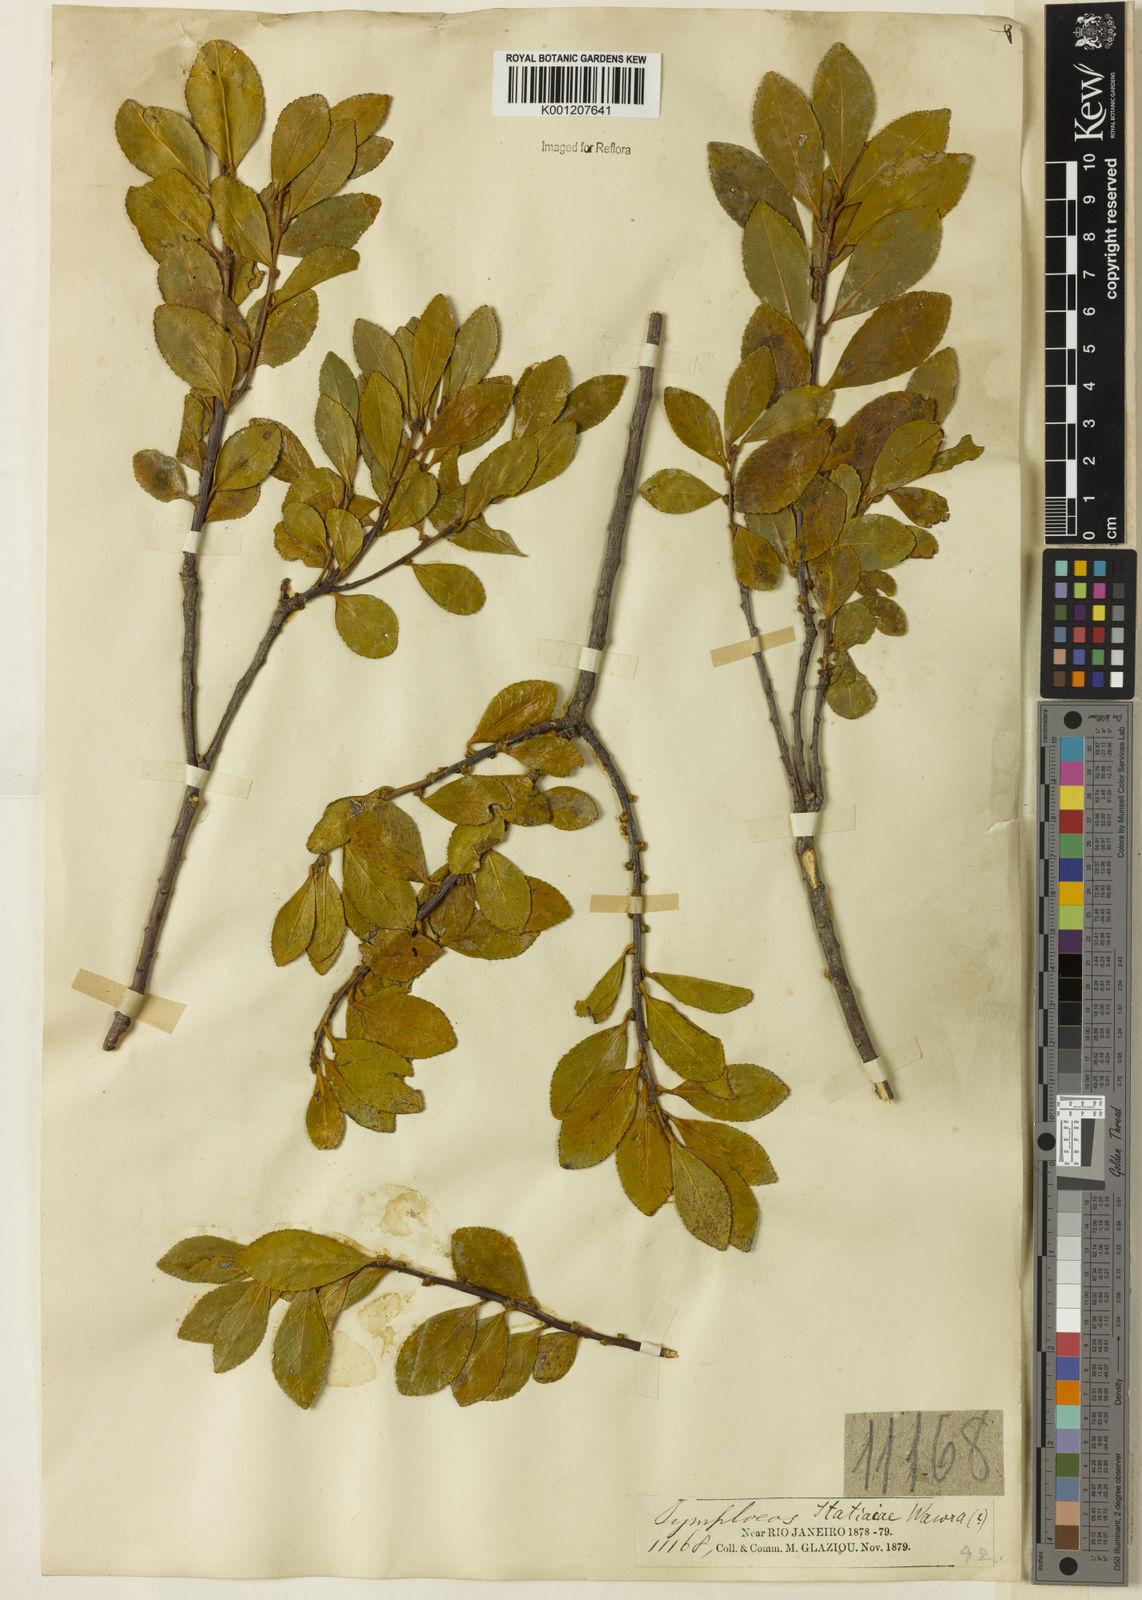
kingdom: Plantae
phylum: Tracheophyta
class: Magnoliopsida
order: Ericales
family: Symplocaceae
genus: Symplocos
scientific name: Symplocos itatiaiae
